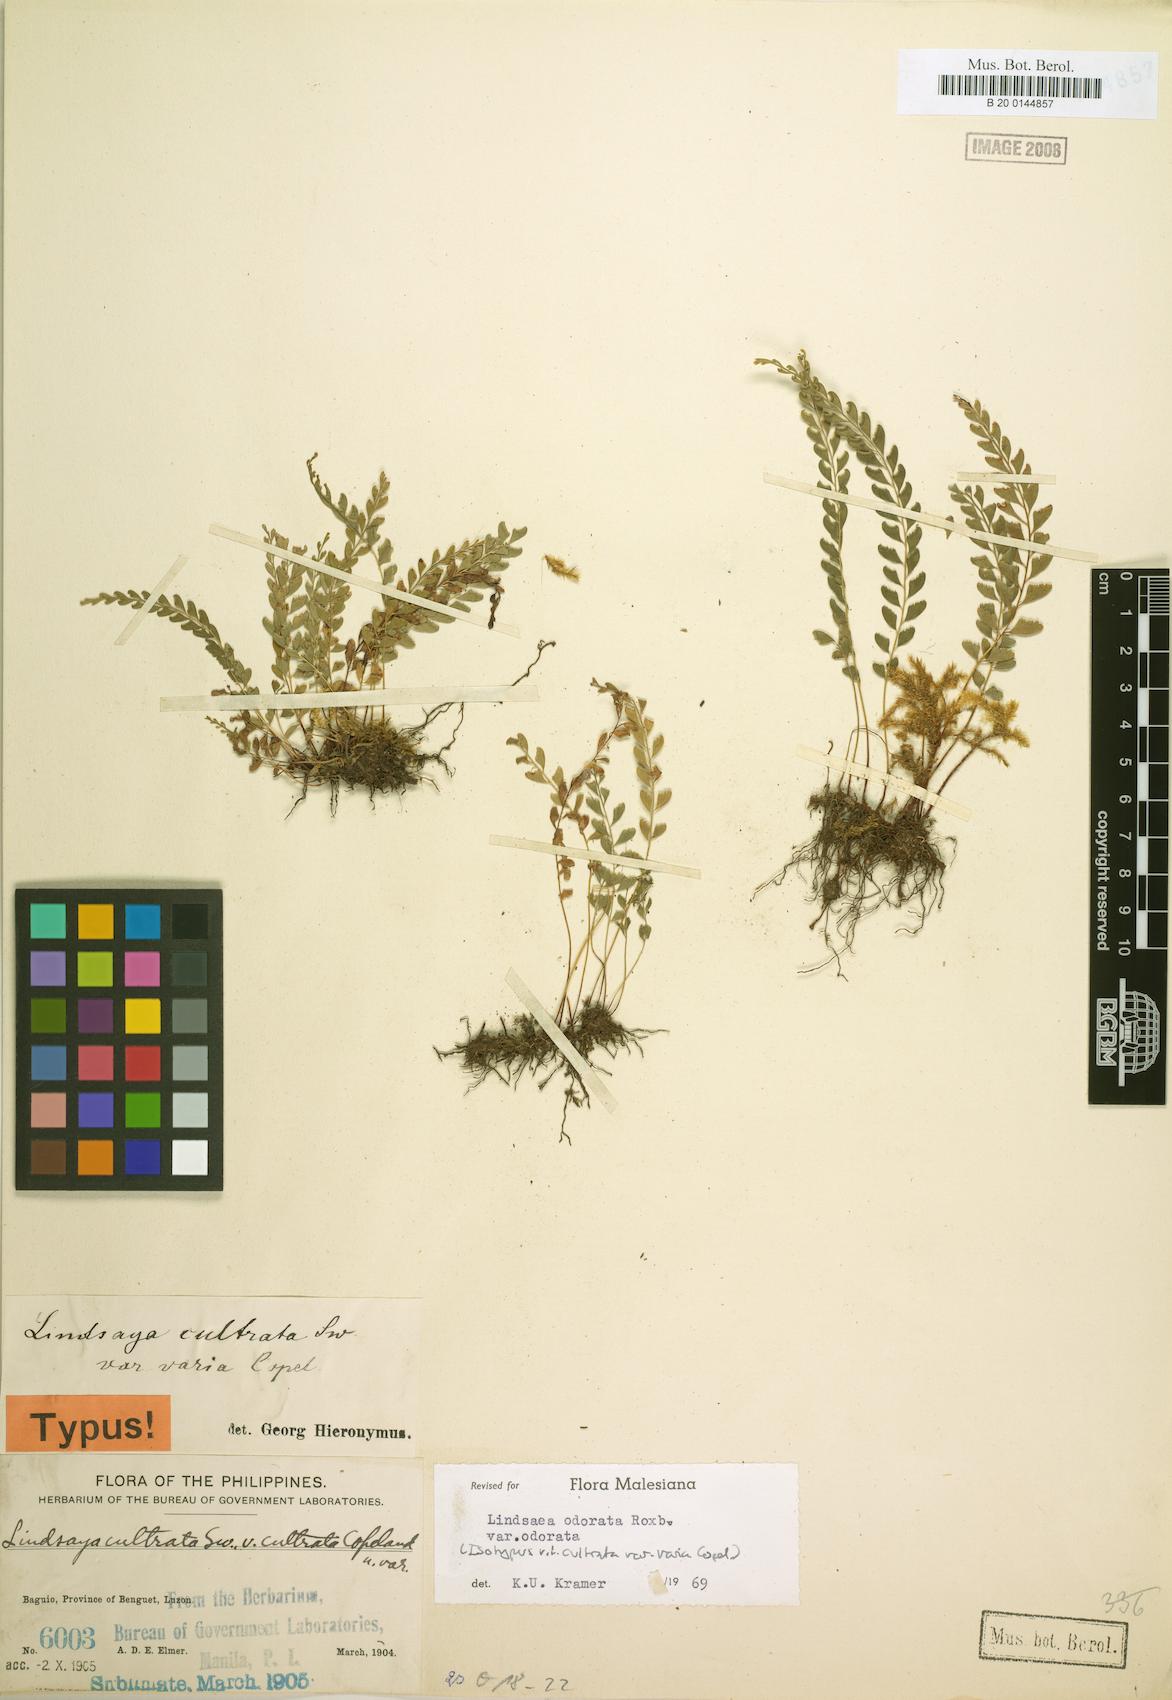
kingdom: Plantae
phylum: Tracheophyta
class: Polypodiopsida
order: Polypodiales
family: Lindsaeaceae
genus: Osmolindsaea
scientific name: Osmolindsaea odorata
